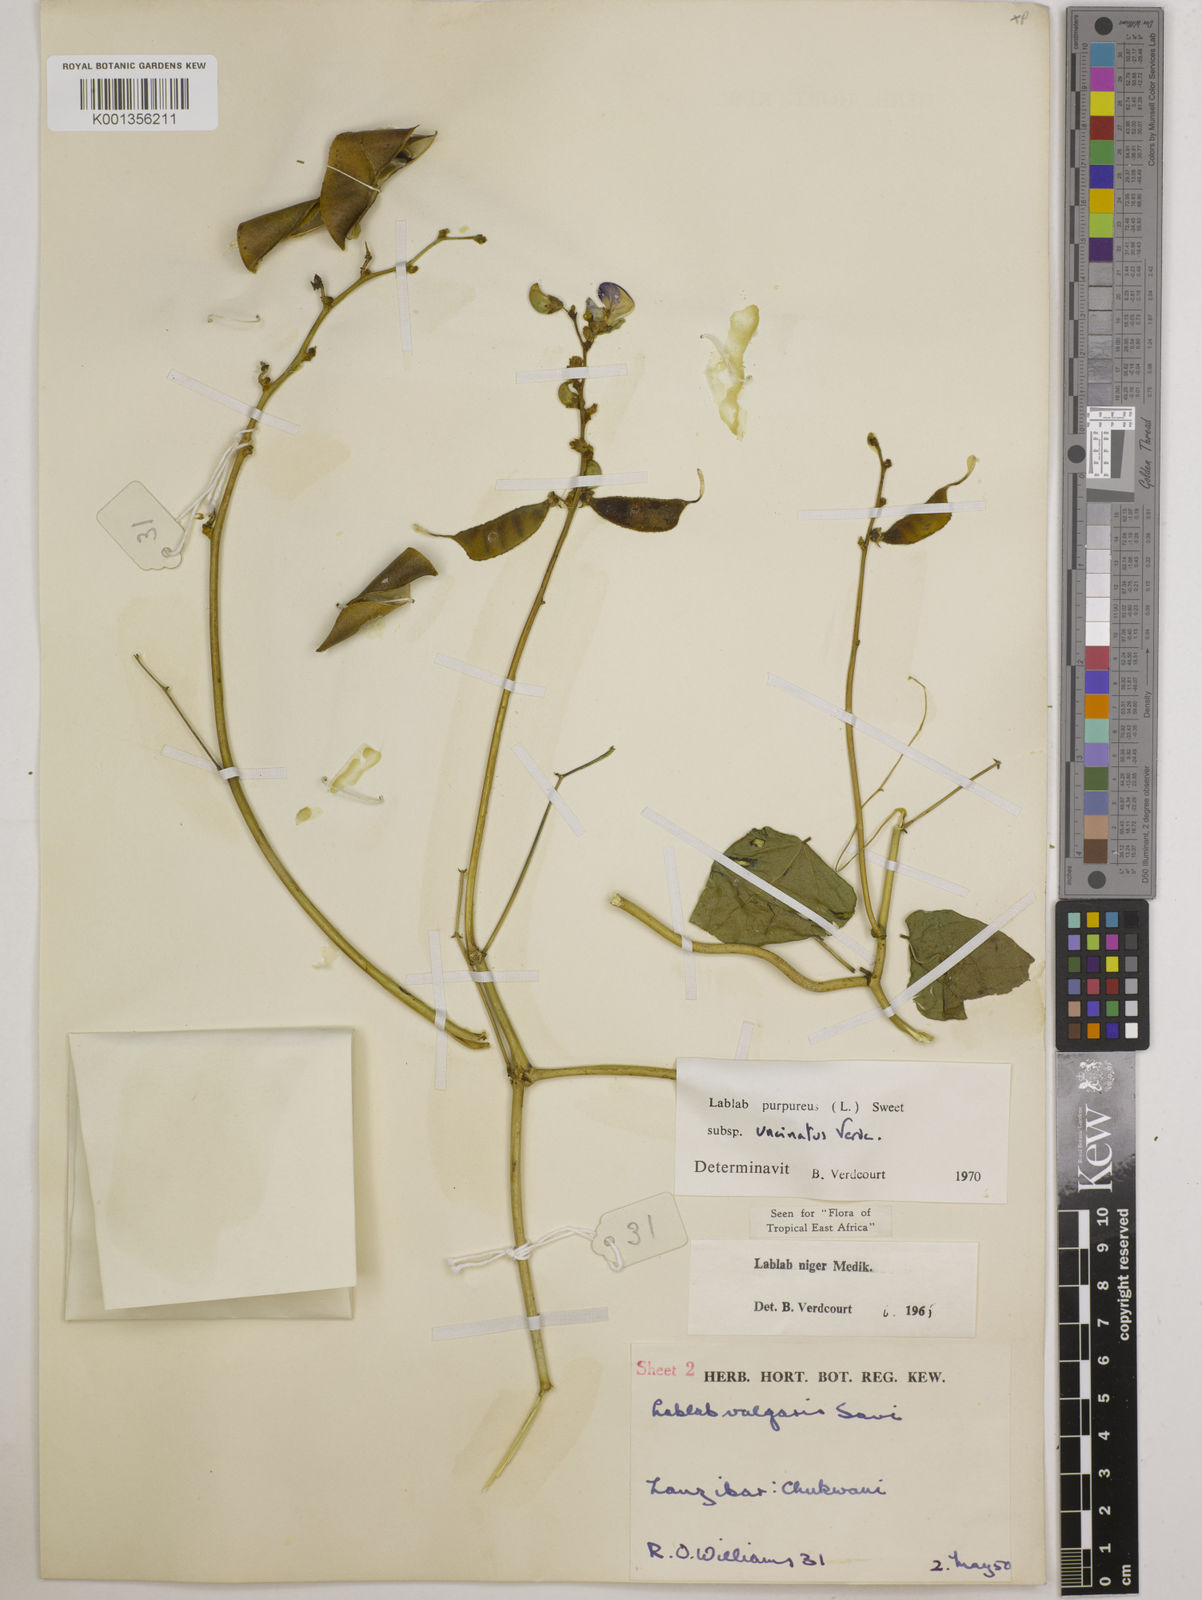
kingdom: Plantae
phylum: Tracheophyta
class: Magnoliopsida
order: Fabales
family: Fabaceae
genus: Lablab
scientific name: Lablab purpureus
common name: Lablab-bean
